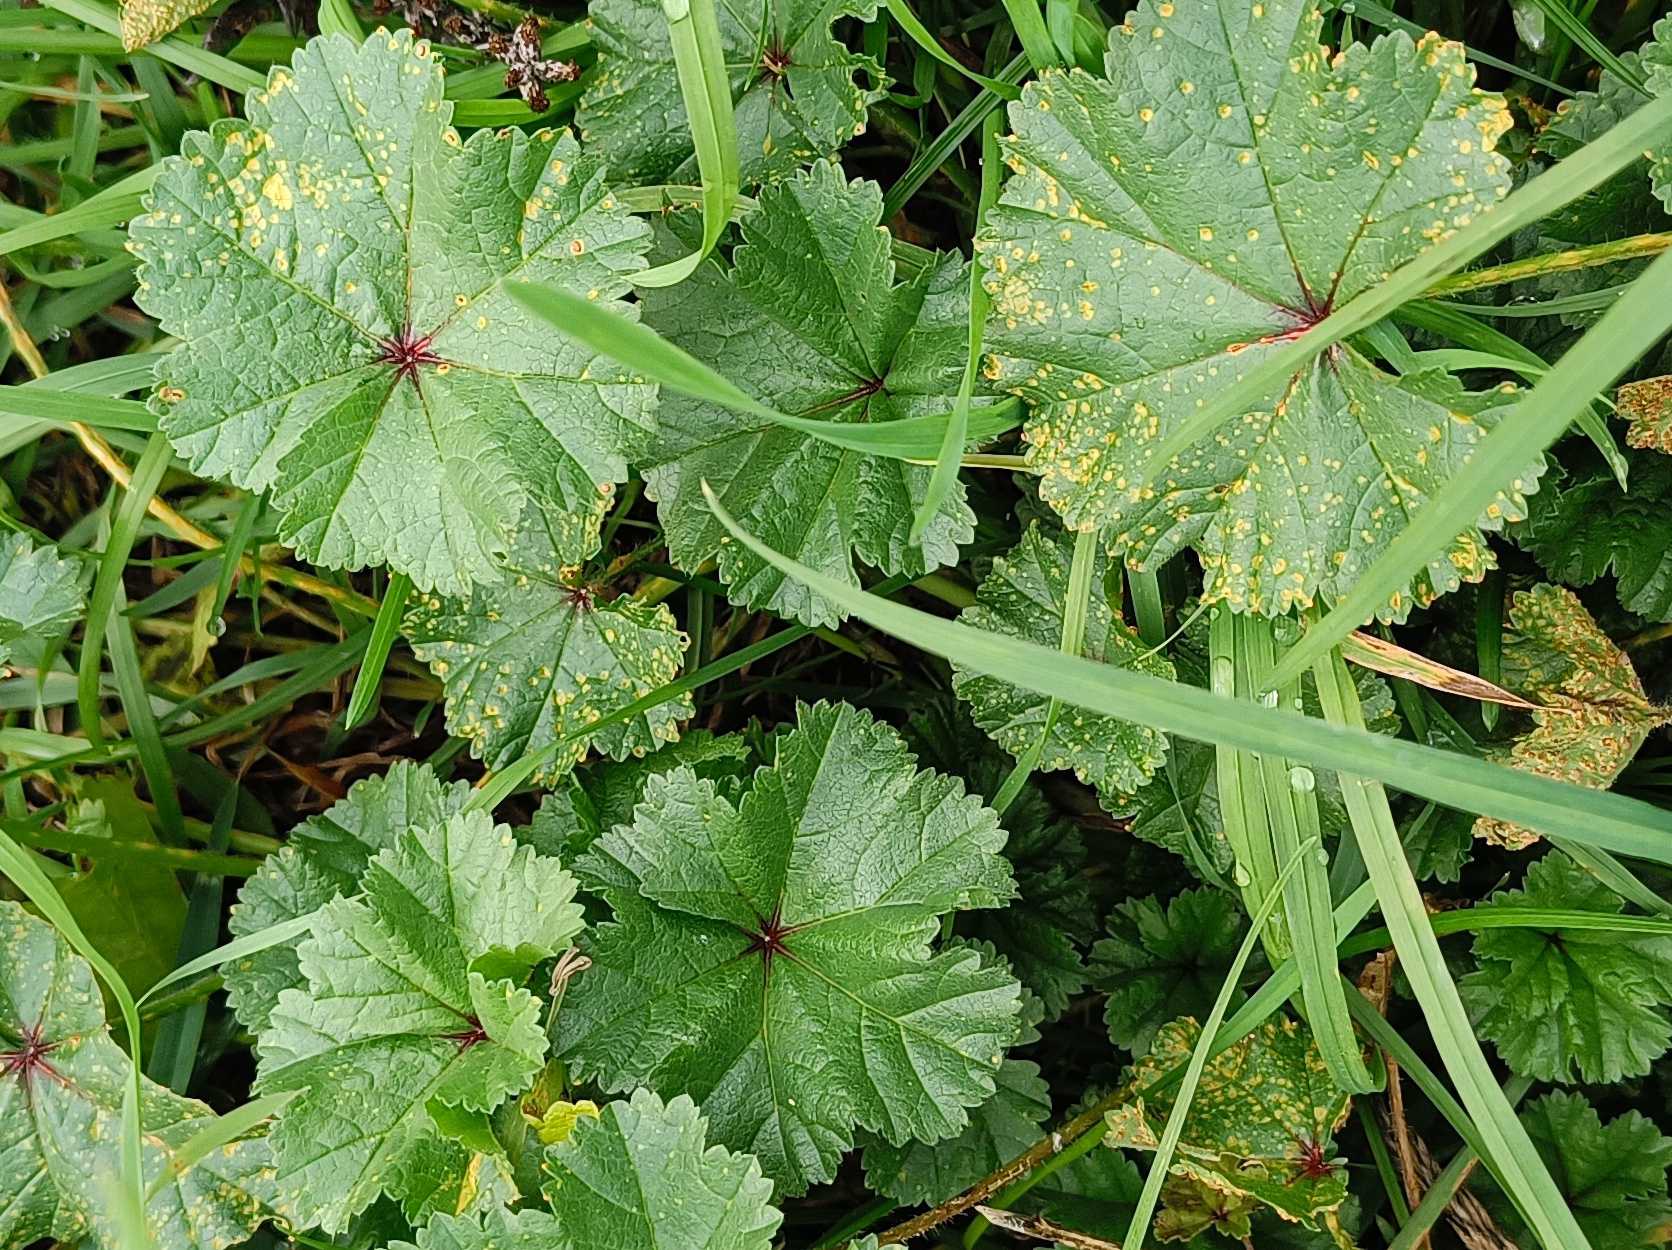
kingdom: Plantae
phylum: Tracheophyta
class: Magnoliopsida
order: Malvales
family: Malvaceae
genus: Malva
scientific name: Malva
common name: Katostslægten
